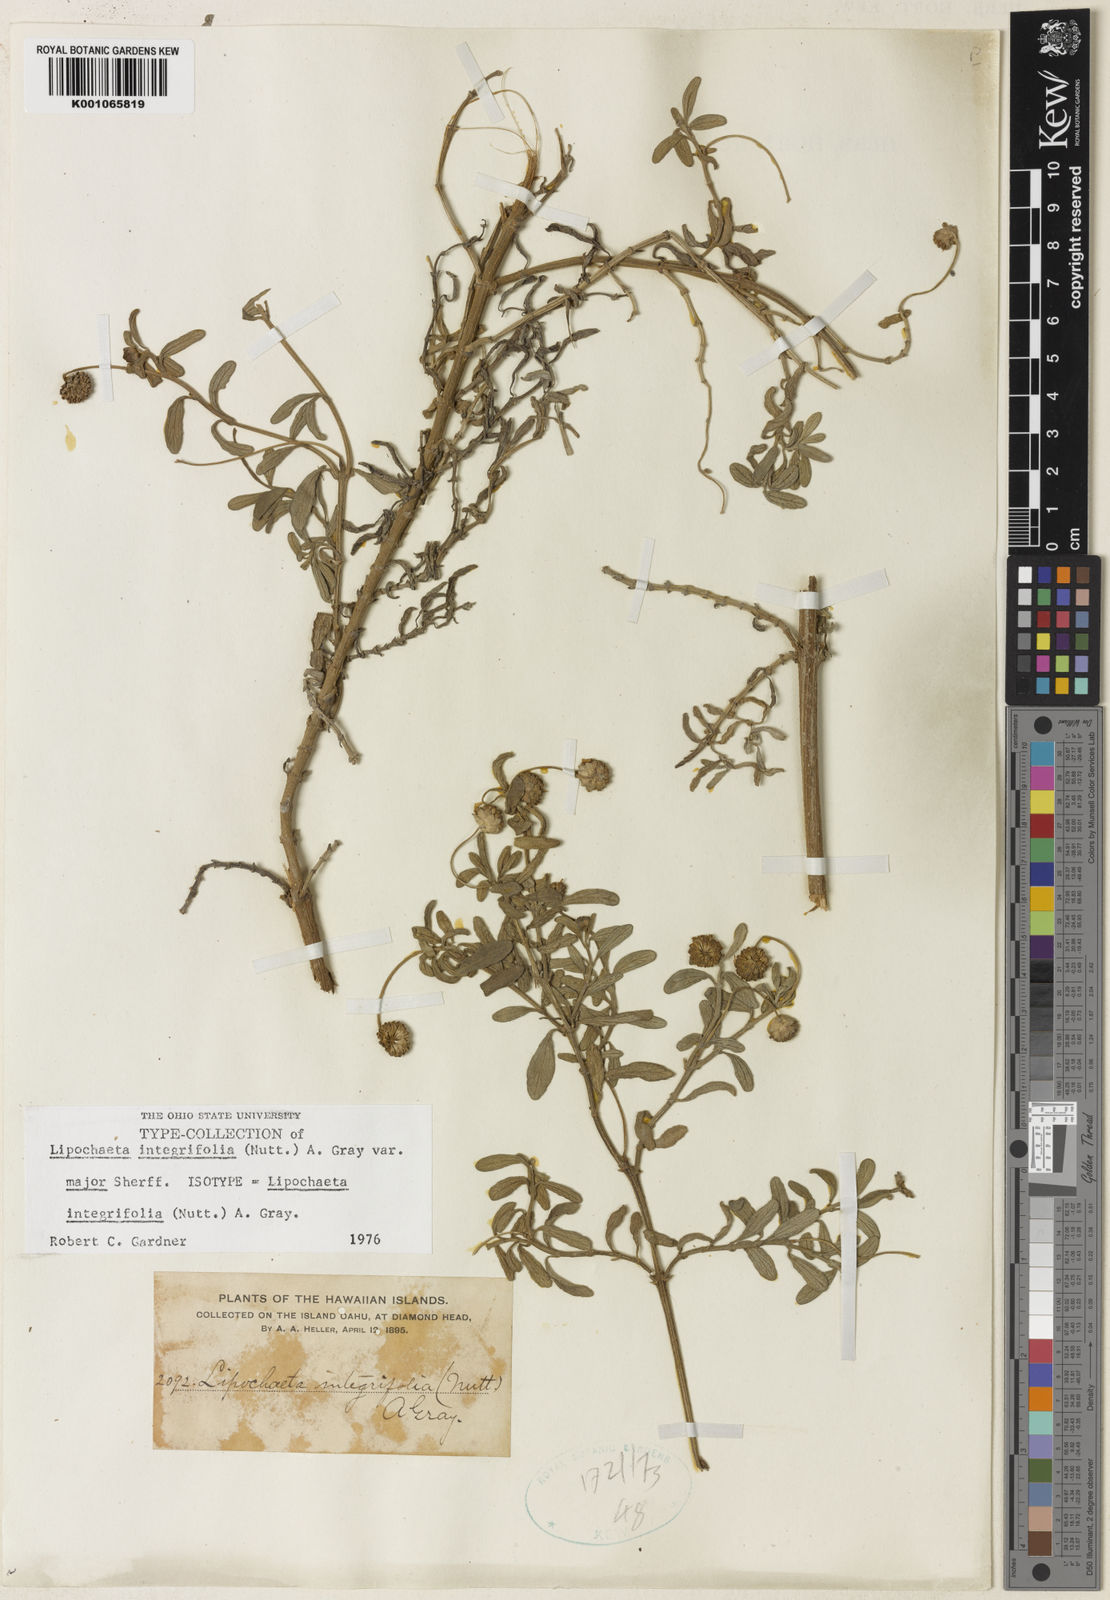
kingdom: Plantae
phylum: Tracheophyta
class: Magnoliopsida
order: Asterales
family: Asteraceae
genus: Lipochaeta
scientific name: Lipochaeta integrifolia
